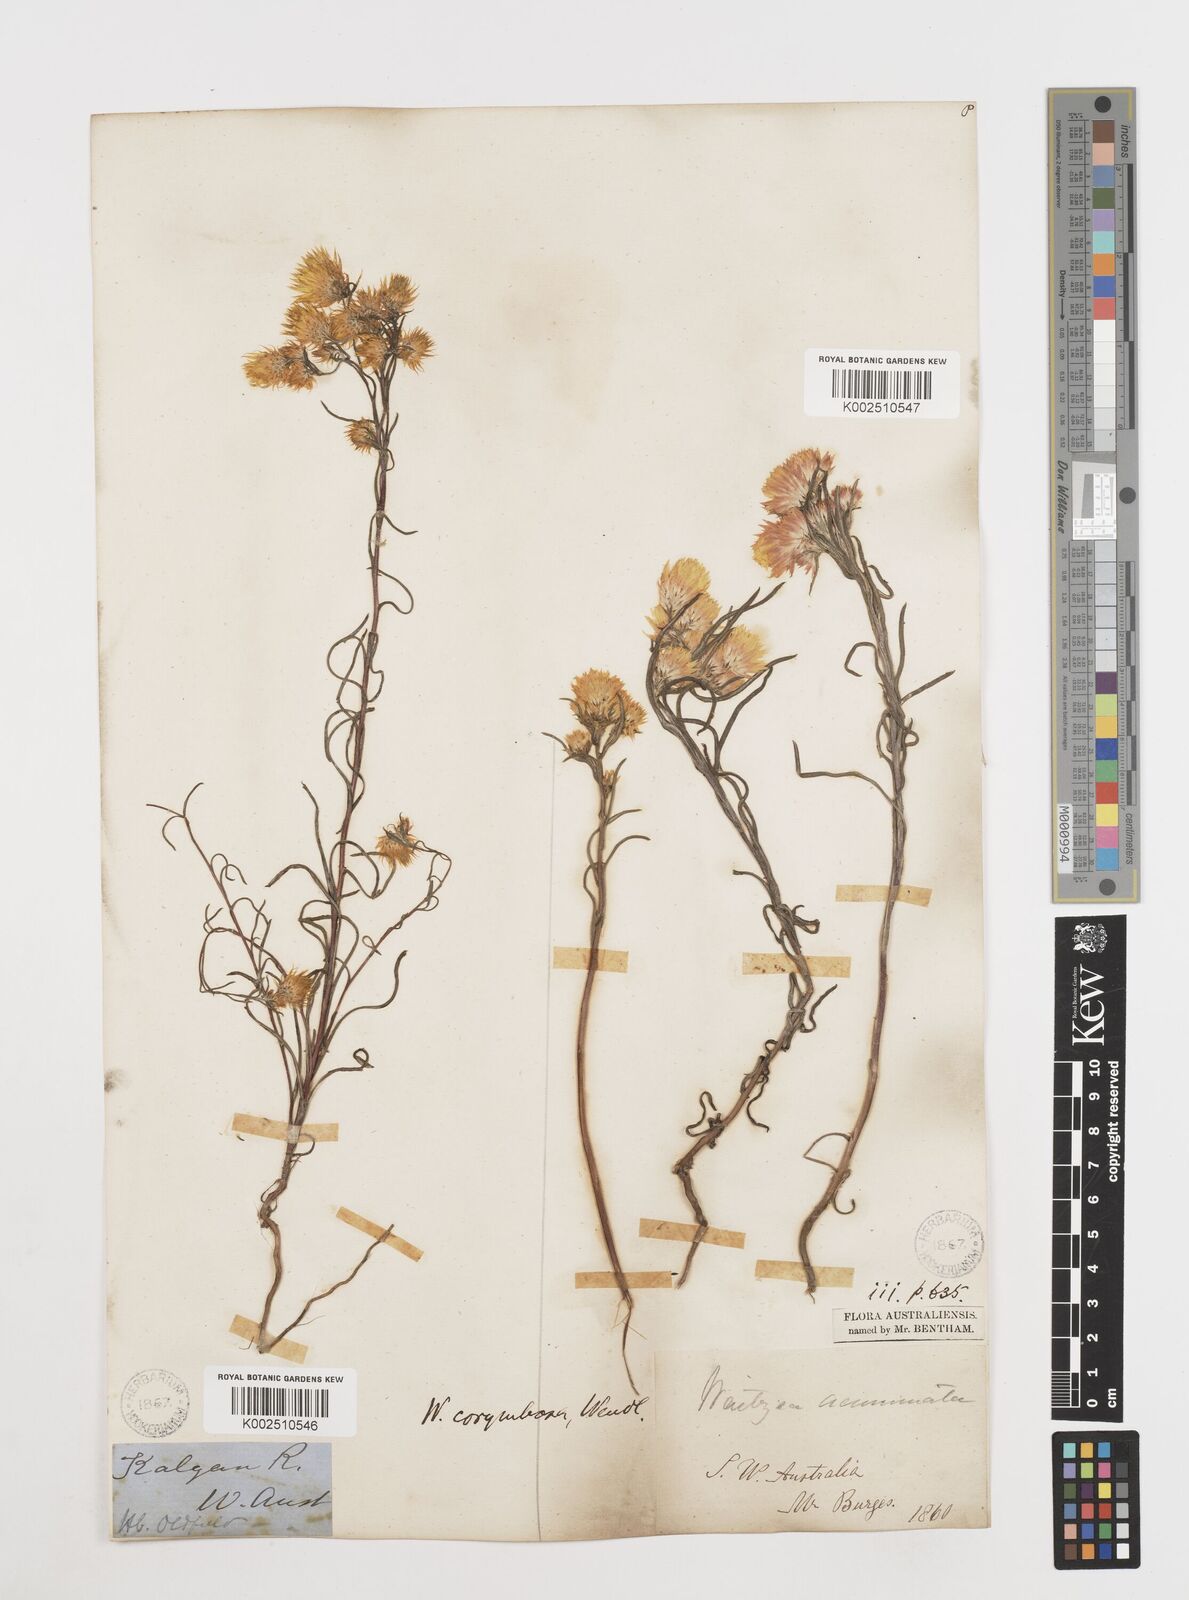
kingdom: Plantae
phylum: Tracheophyta
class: Magnoliopsida
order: Asterales
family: Asteraceae
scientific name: Asteraceae
